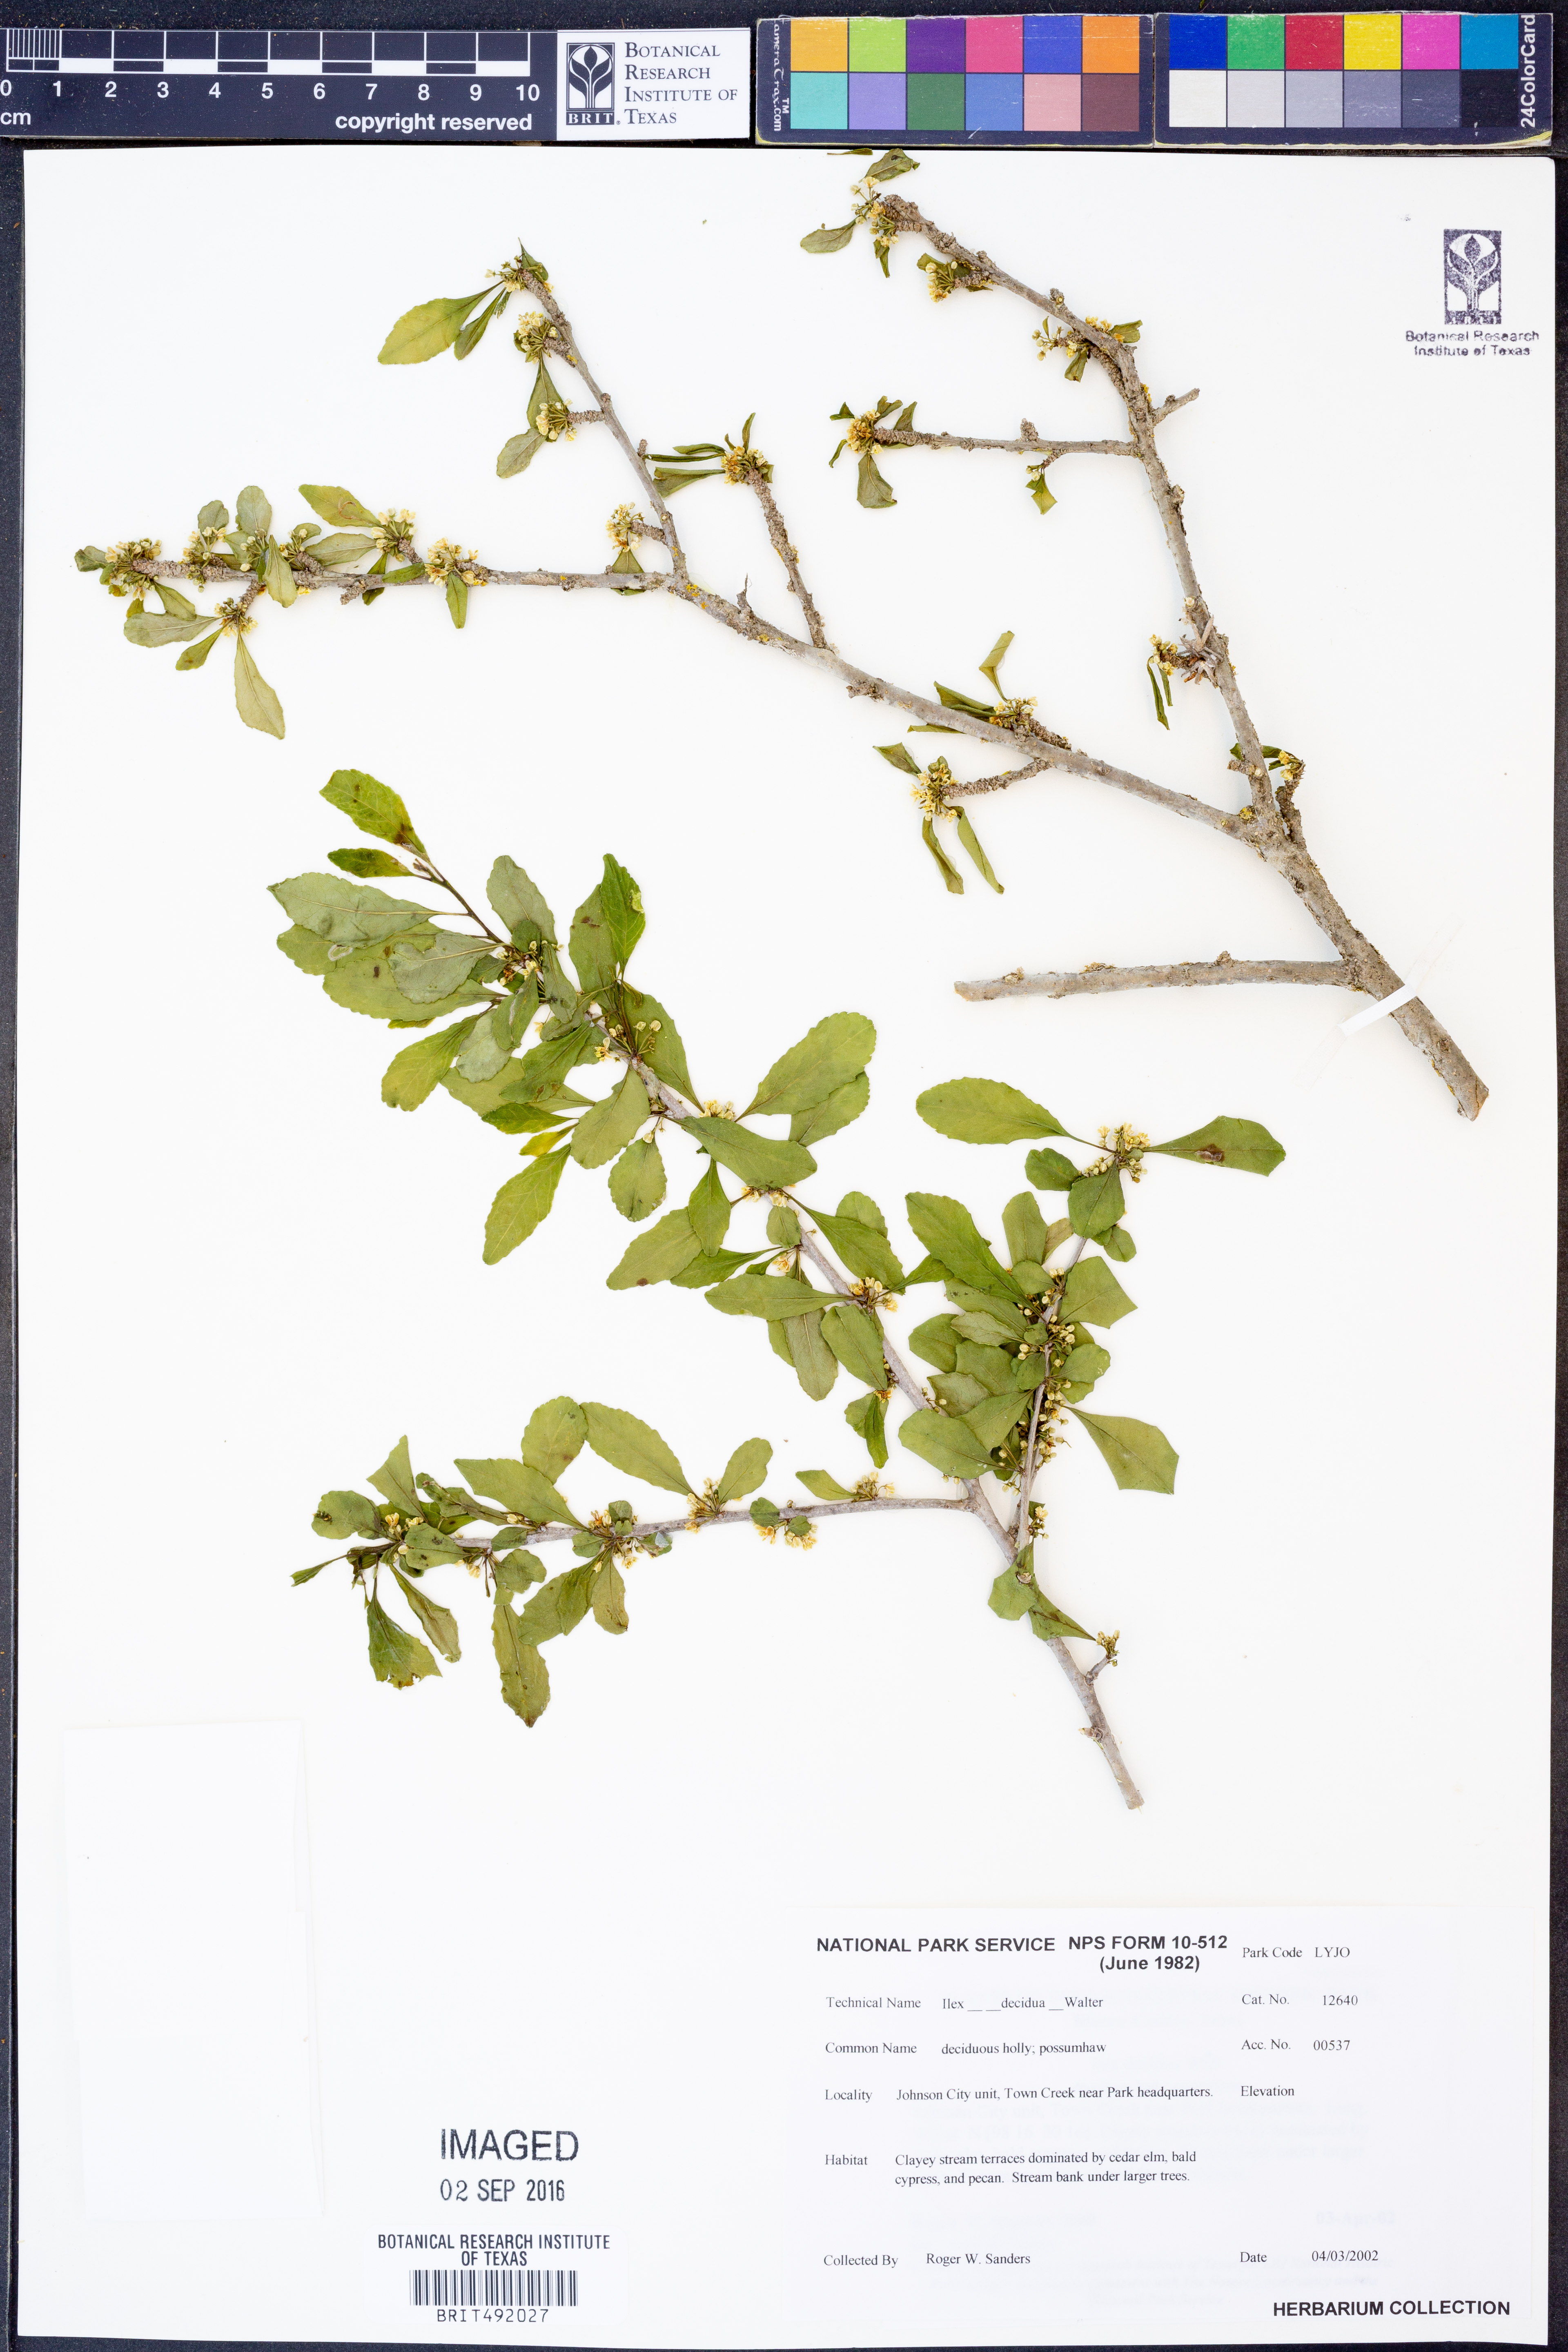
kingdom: Plantae
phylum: Tracheophyta
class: Magnoliopsida
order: Aquifoliales
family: Aquifoliaceae
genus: Ilex
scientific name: Ilex decidua
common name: Possum-haw
